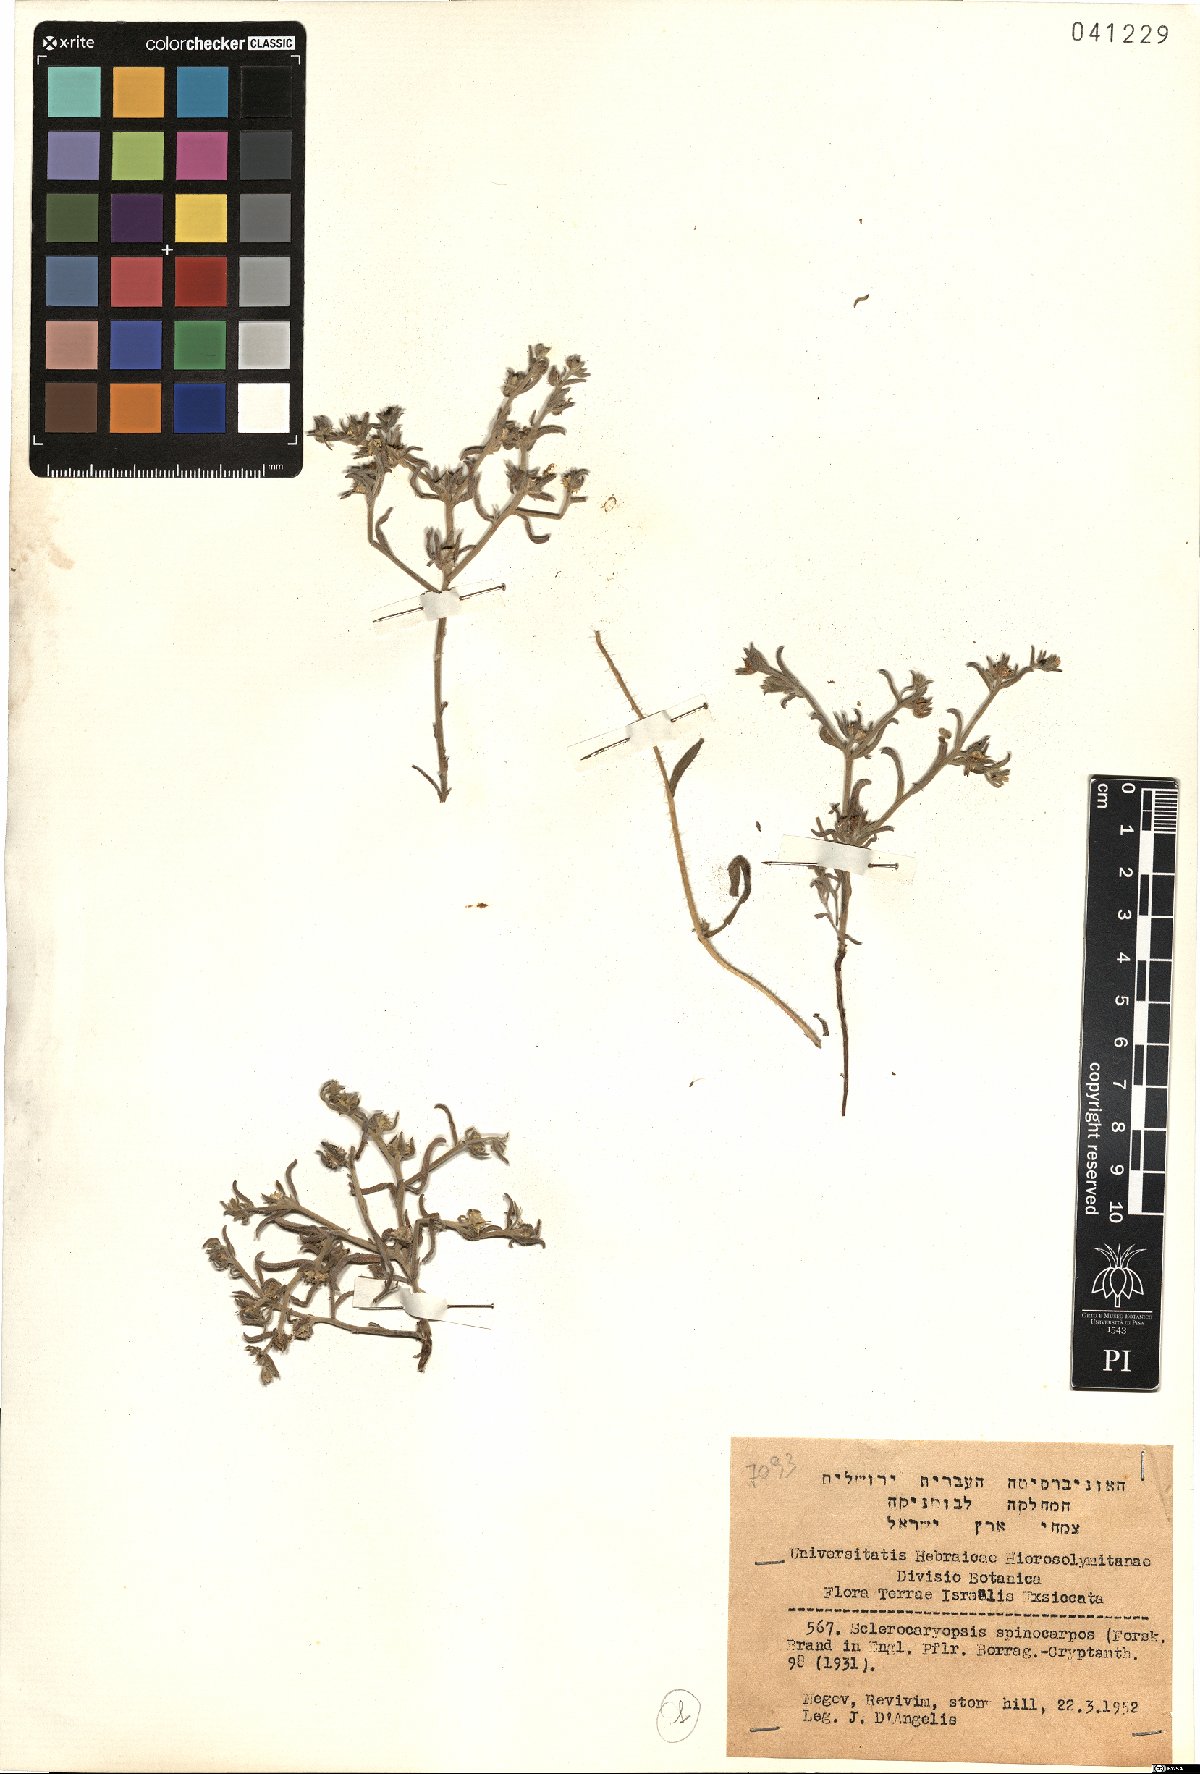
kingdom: Plantae
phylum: Tracheophyta
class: Magnoliopsida
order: Boraginales
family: Boraginaceae
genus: Lappula
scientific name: Lappula spinocarpos
